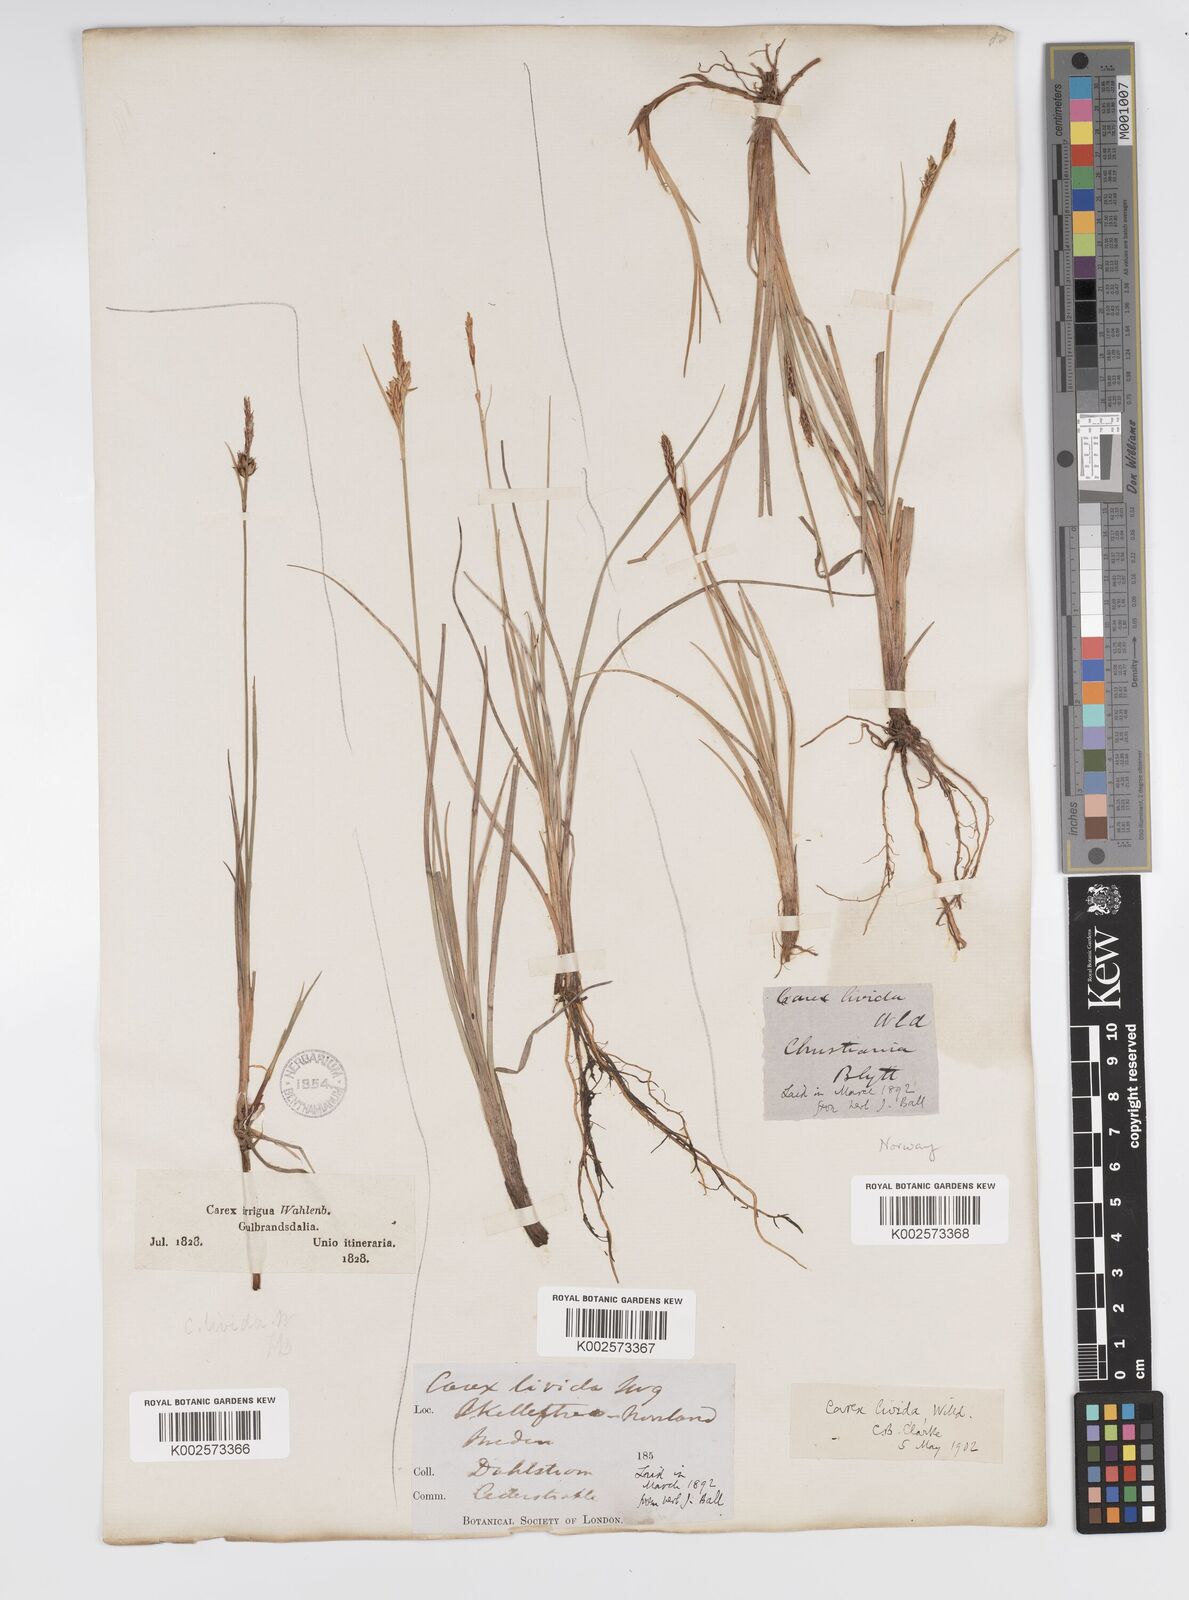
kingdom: Plantae
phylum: Tracheophyta
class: Liliopsida
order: Poales
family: Cyperaceae
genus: Carex
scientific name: Carex livida
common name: Livid sedge
